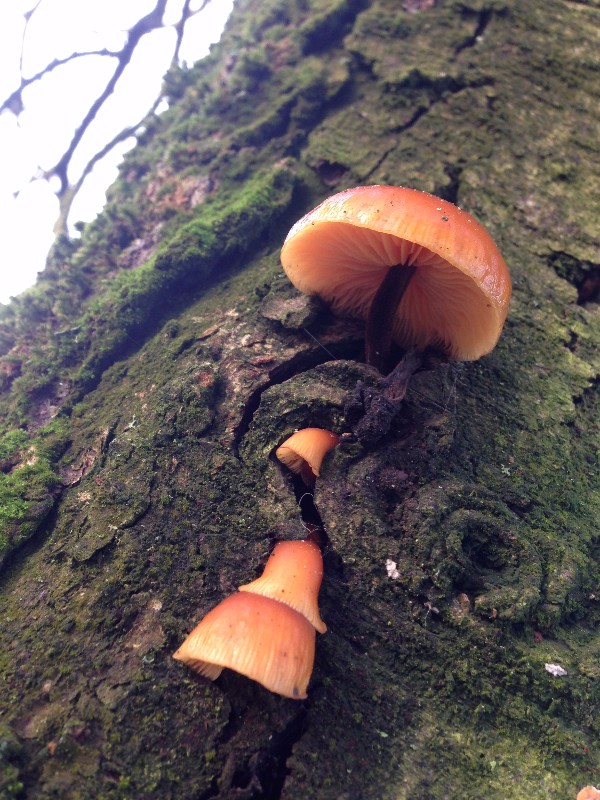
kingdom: Fungi
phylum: Basidiomycota
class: Agaricomycetes
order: Agaricales
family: Physalacriaceae
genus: Flammulina
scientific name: Flammulina velutipes
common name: gul fløjlsfod
